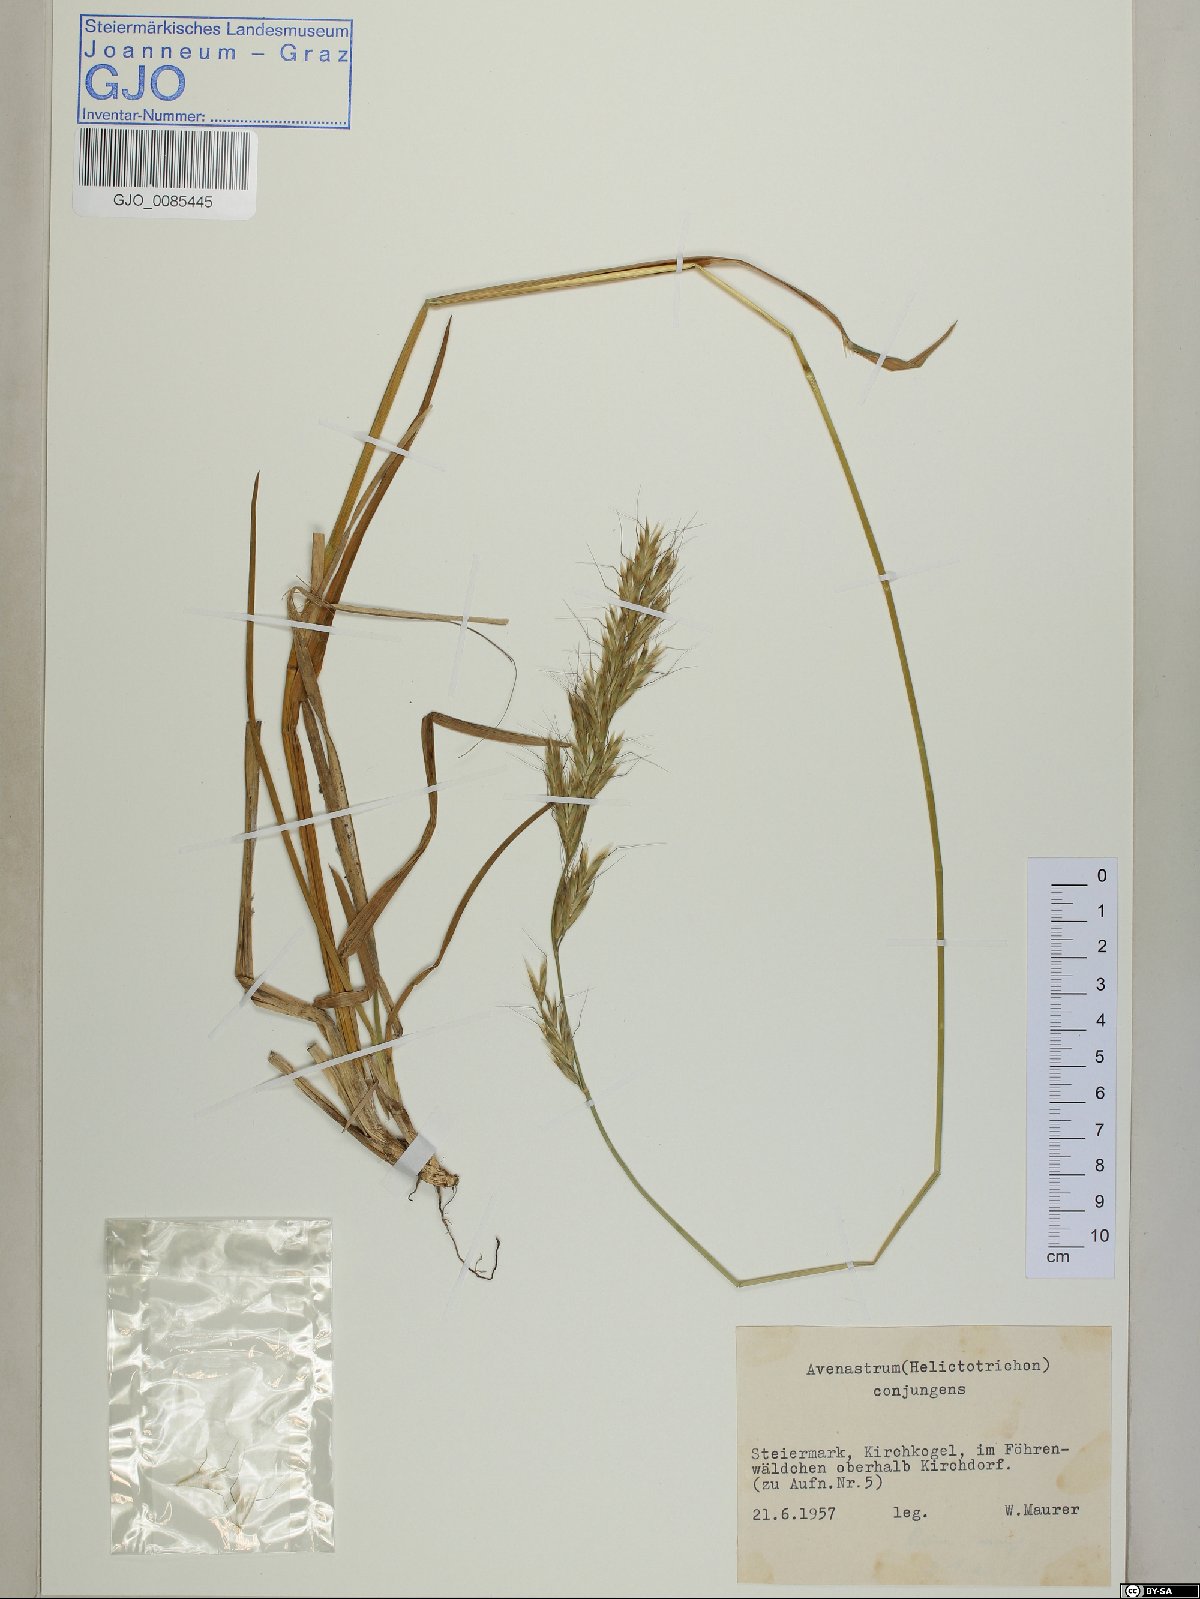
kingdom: Plantae
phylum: Tracheophyta
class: Liliopsida
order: Poales
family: Poaceae
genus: Helictochloa
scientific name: Helictochloa praeusta
